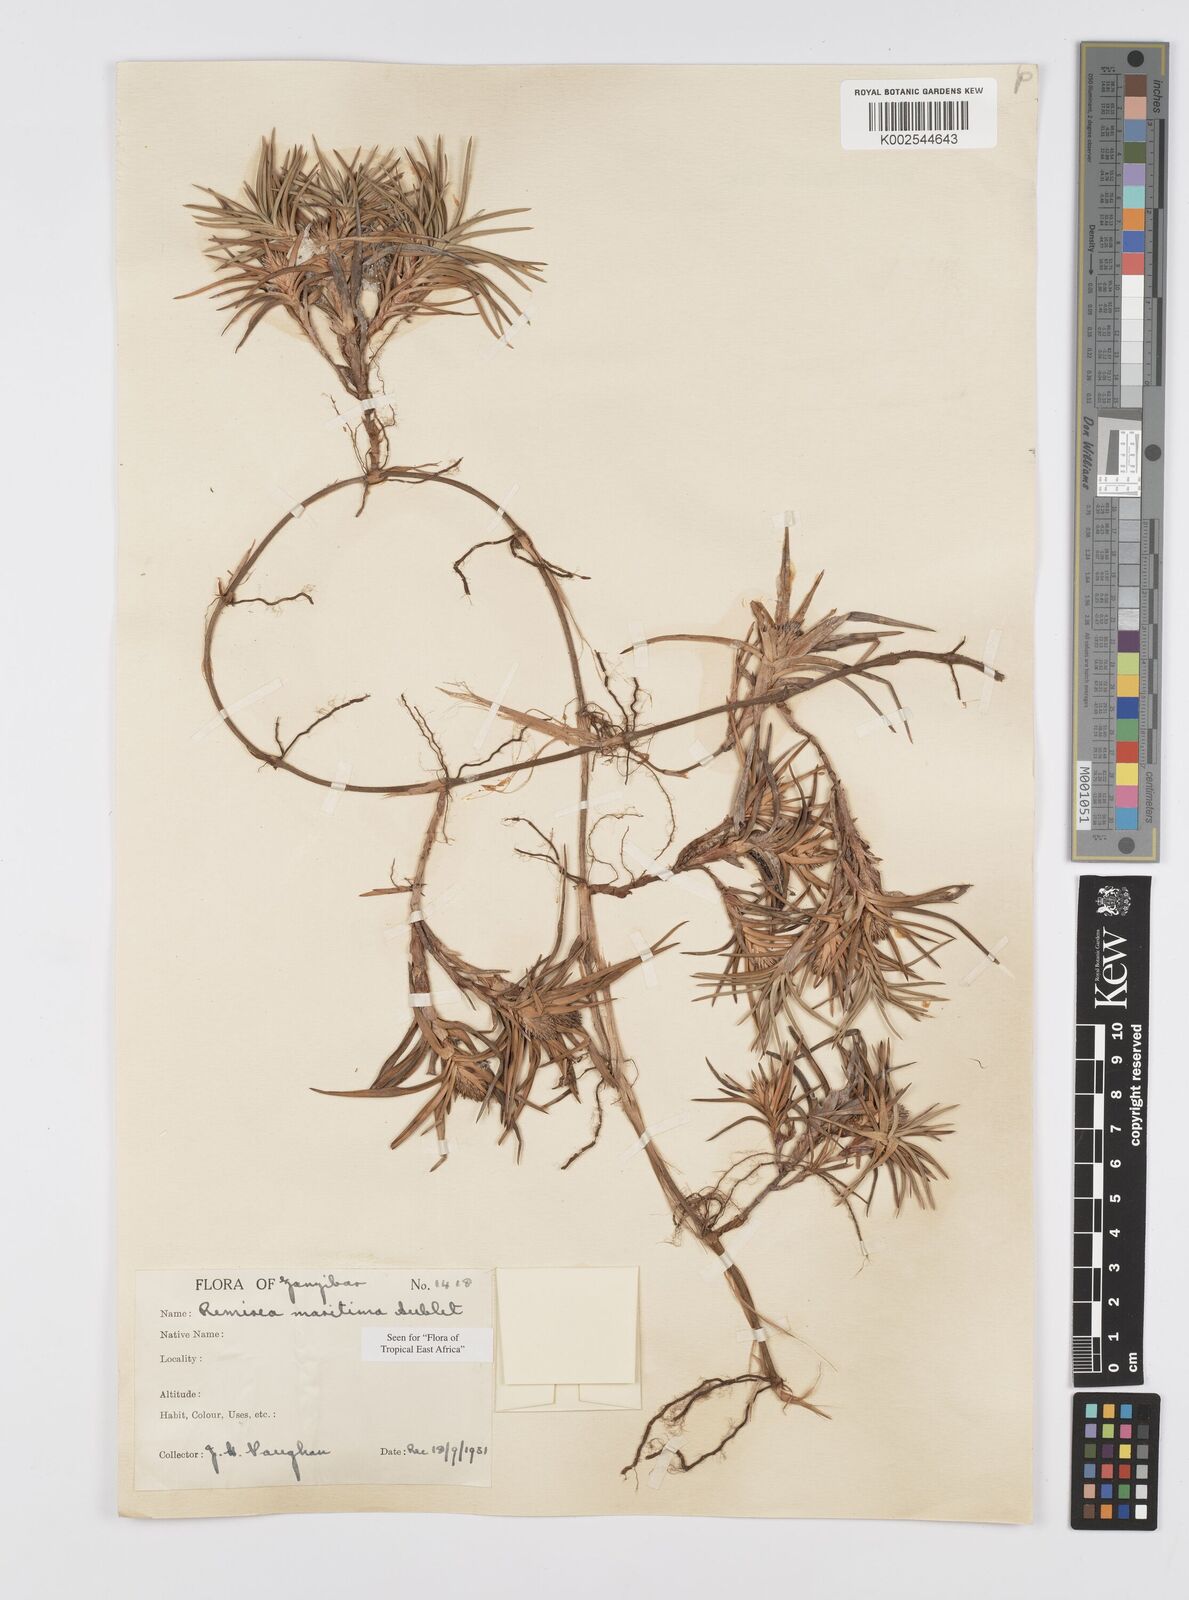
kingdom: Plantae
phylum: Tracheophyta
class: Liliopsida
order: Poales
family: Cyperaceae
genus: Cyperus
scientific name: Cyperus
